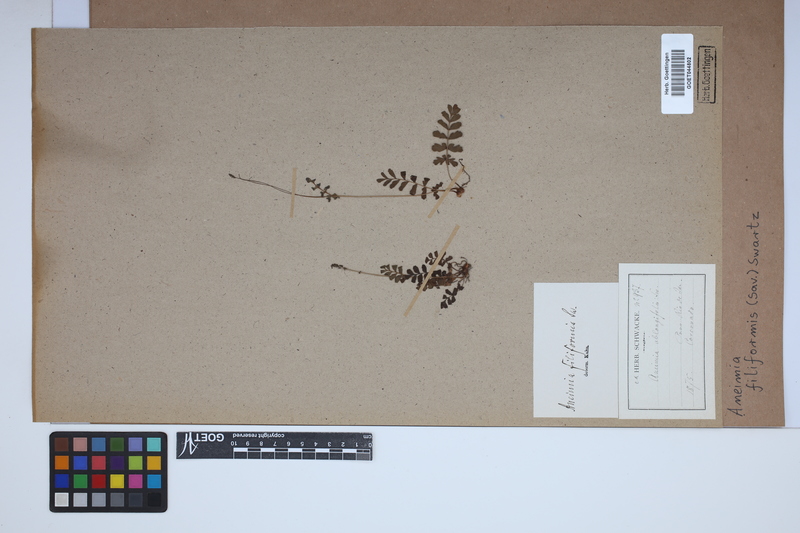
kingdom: Plantae
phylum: Tracheophyta
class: Polypodiopsida
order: Schizaeales
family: Anemiaceae
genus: Anemia
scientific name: Anemia hirsuta
